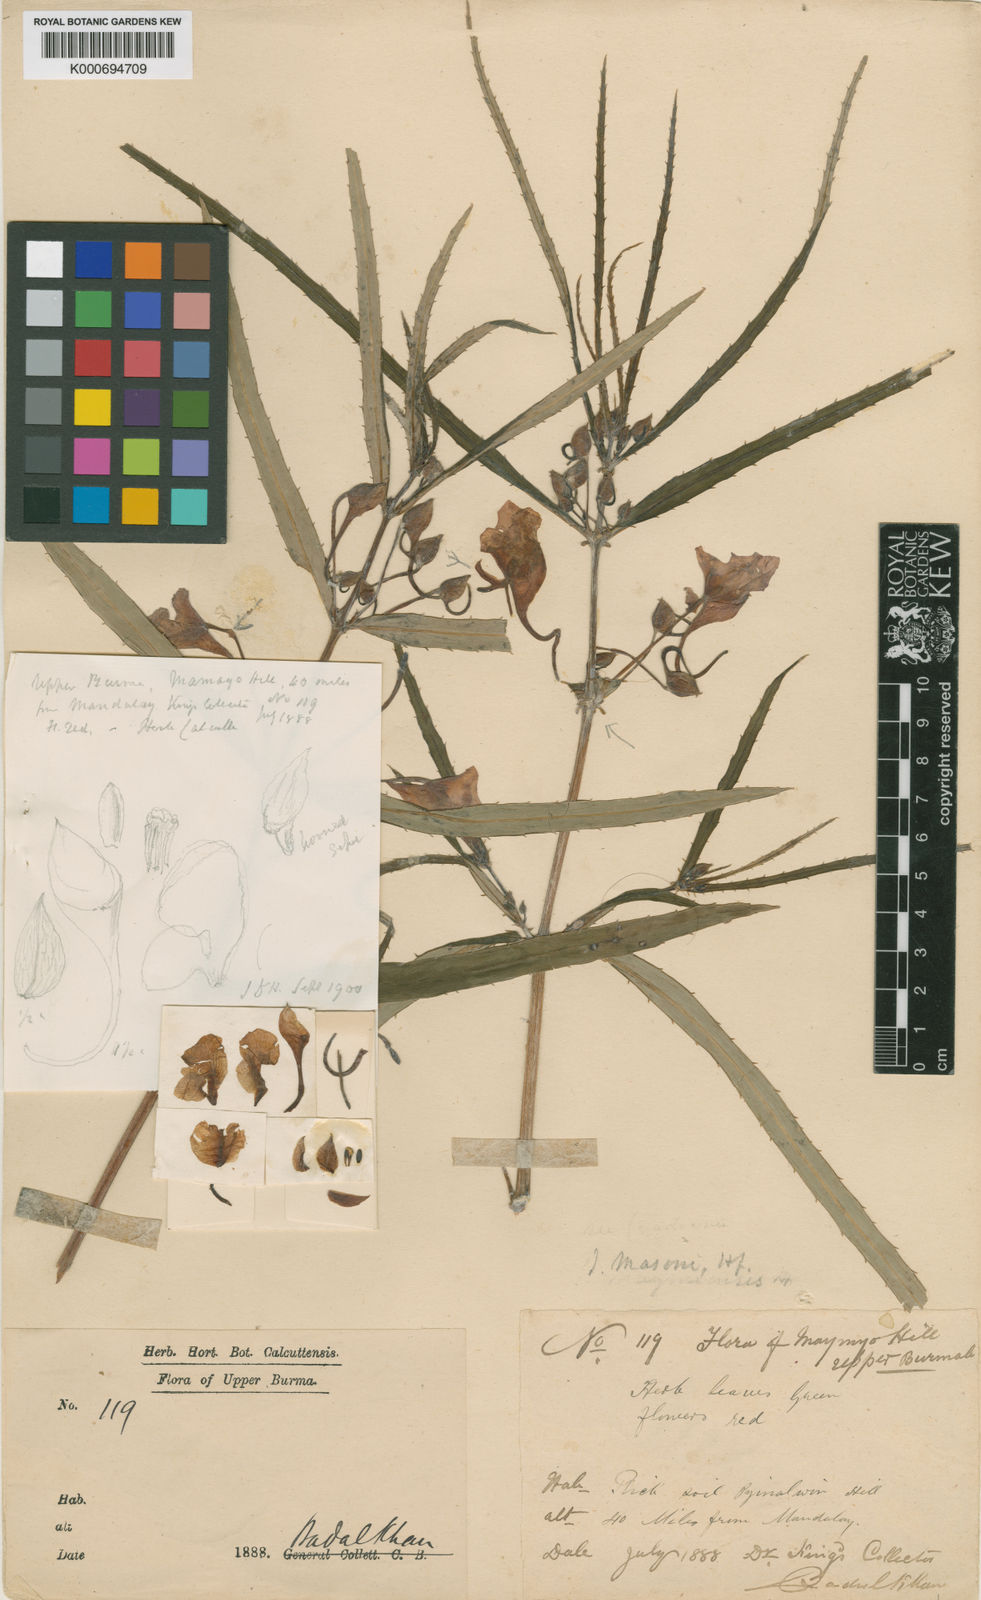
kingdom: Plantae
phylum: Tracheophyta
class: Magnoliopsida
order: Ericales
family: Balsaminaceae
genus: Impatiens
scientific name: Impatiens masonii
